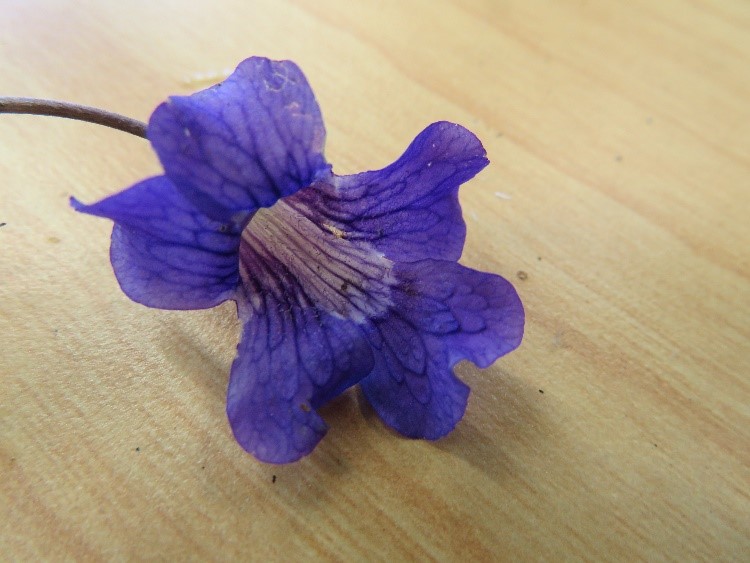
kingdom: Plantae
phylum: Tracheophyta
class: Magnoliopsida
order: Lamiales
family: Lentibulariaceae
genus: Pinguicula
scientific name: Pinguicula grandiflora
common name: Large-flowered butterwort
